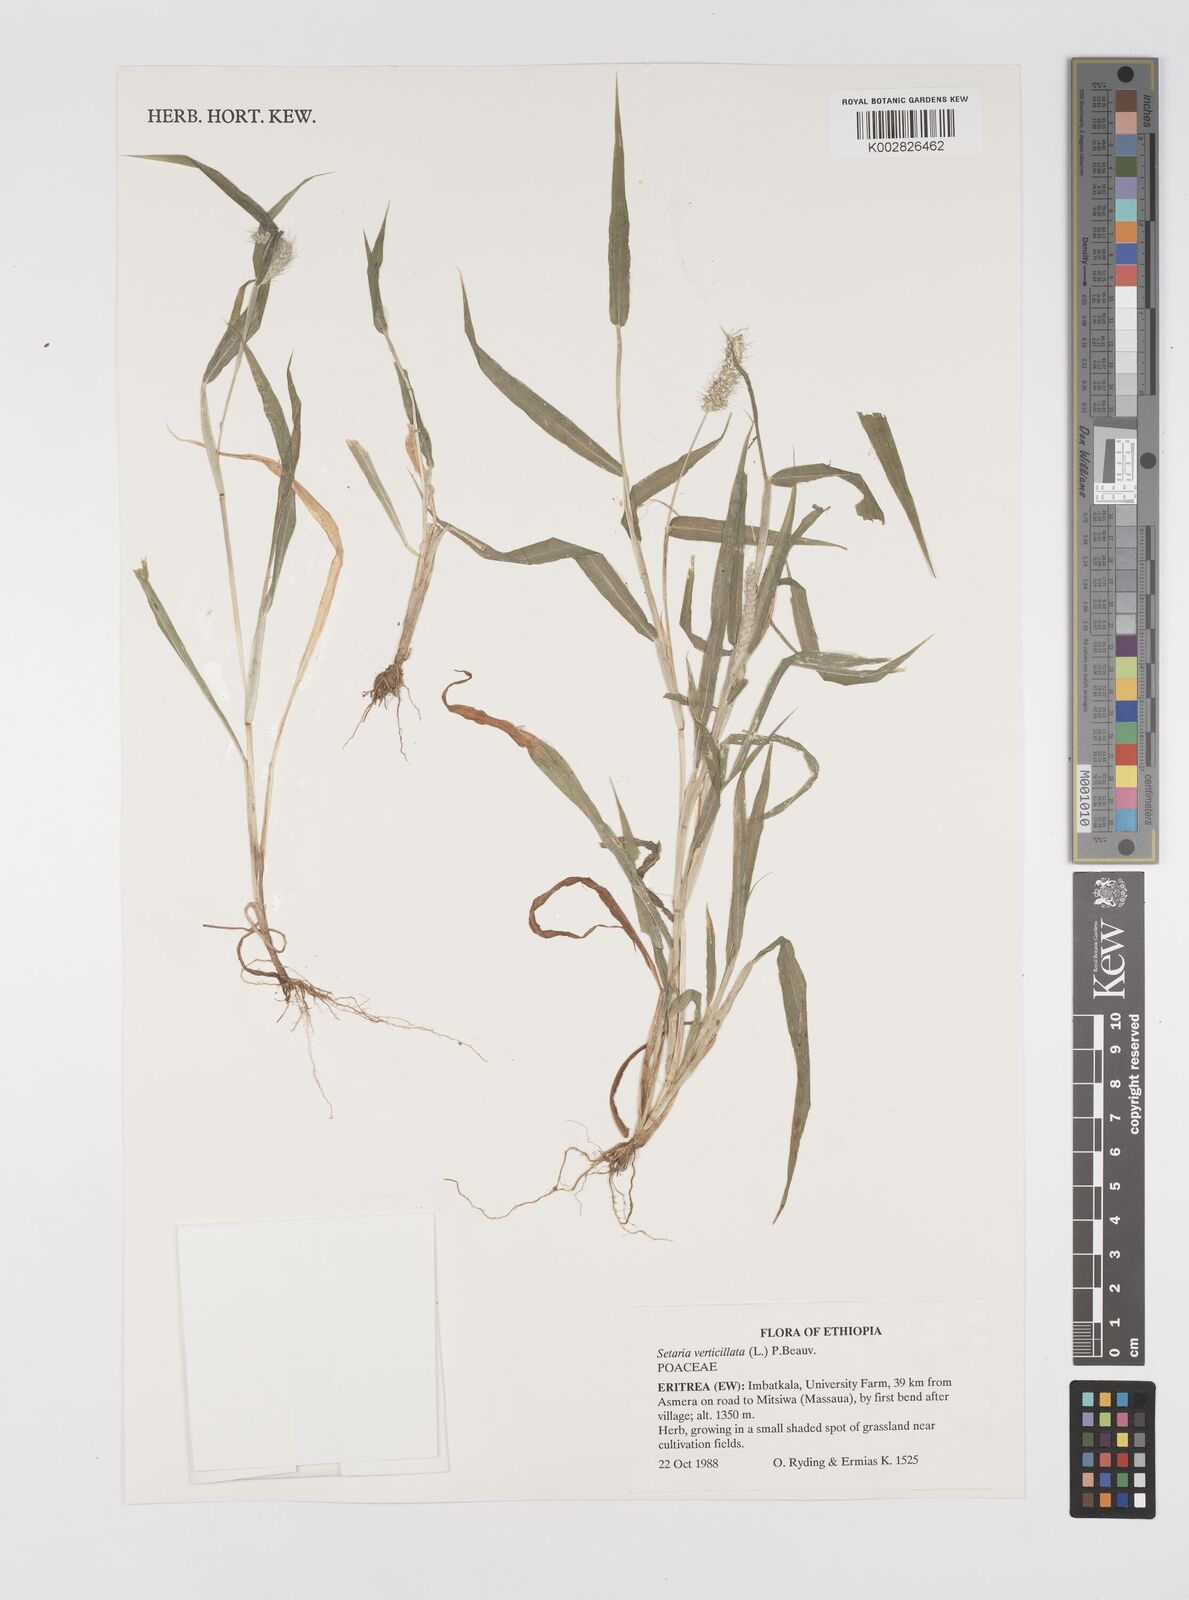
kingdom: Plantae
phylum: Tracheophyta
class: Liliopsida
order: Poales
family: Poaceae
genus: Setaria
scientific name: Setaria verticillata
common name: Hooked bristlegrass
